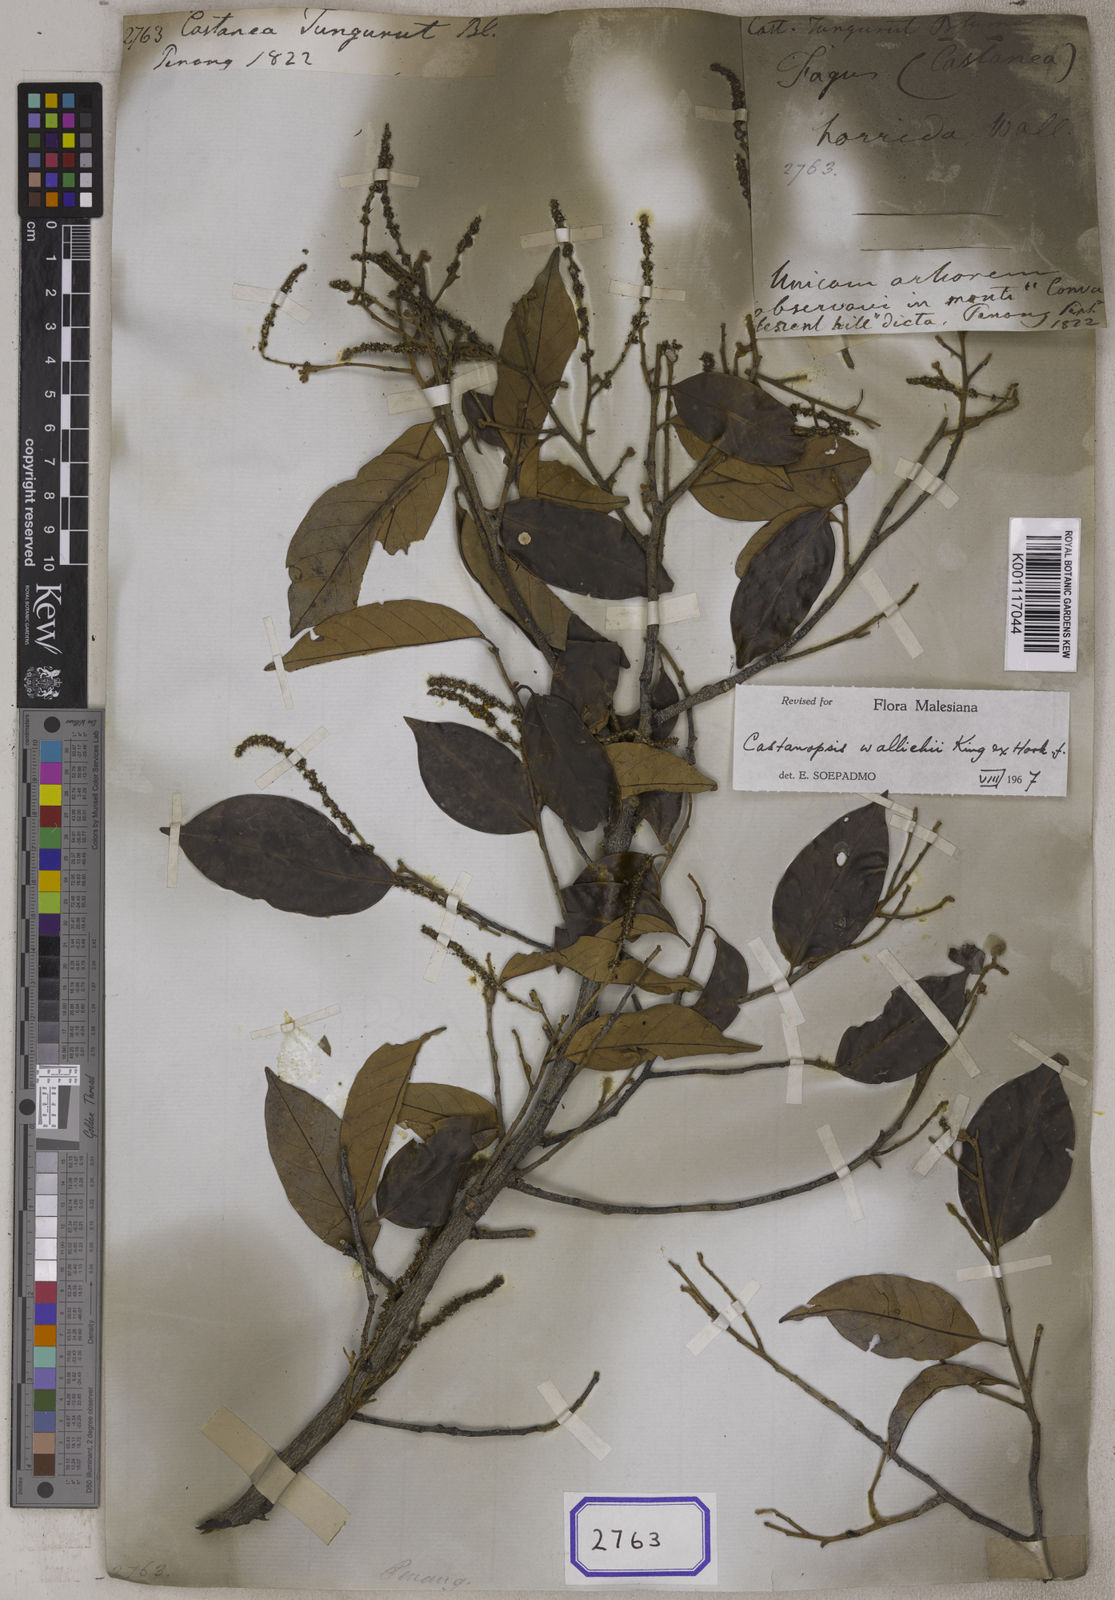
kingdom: Plantae
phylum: Tracheophyta
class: Magnoliopsida
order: Fagales
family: Fagaceae
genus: Castanopsis
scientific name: Castanopsis tungurrut
